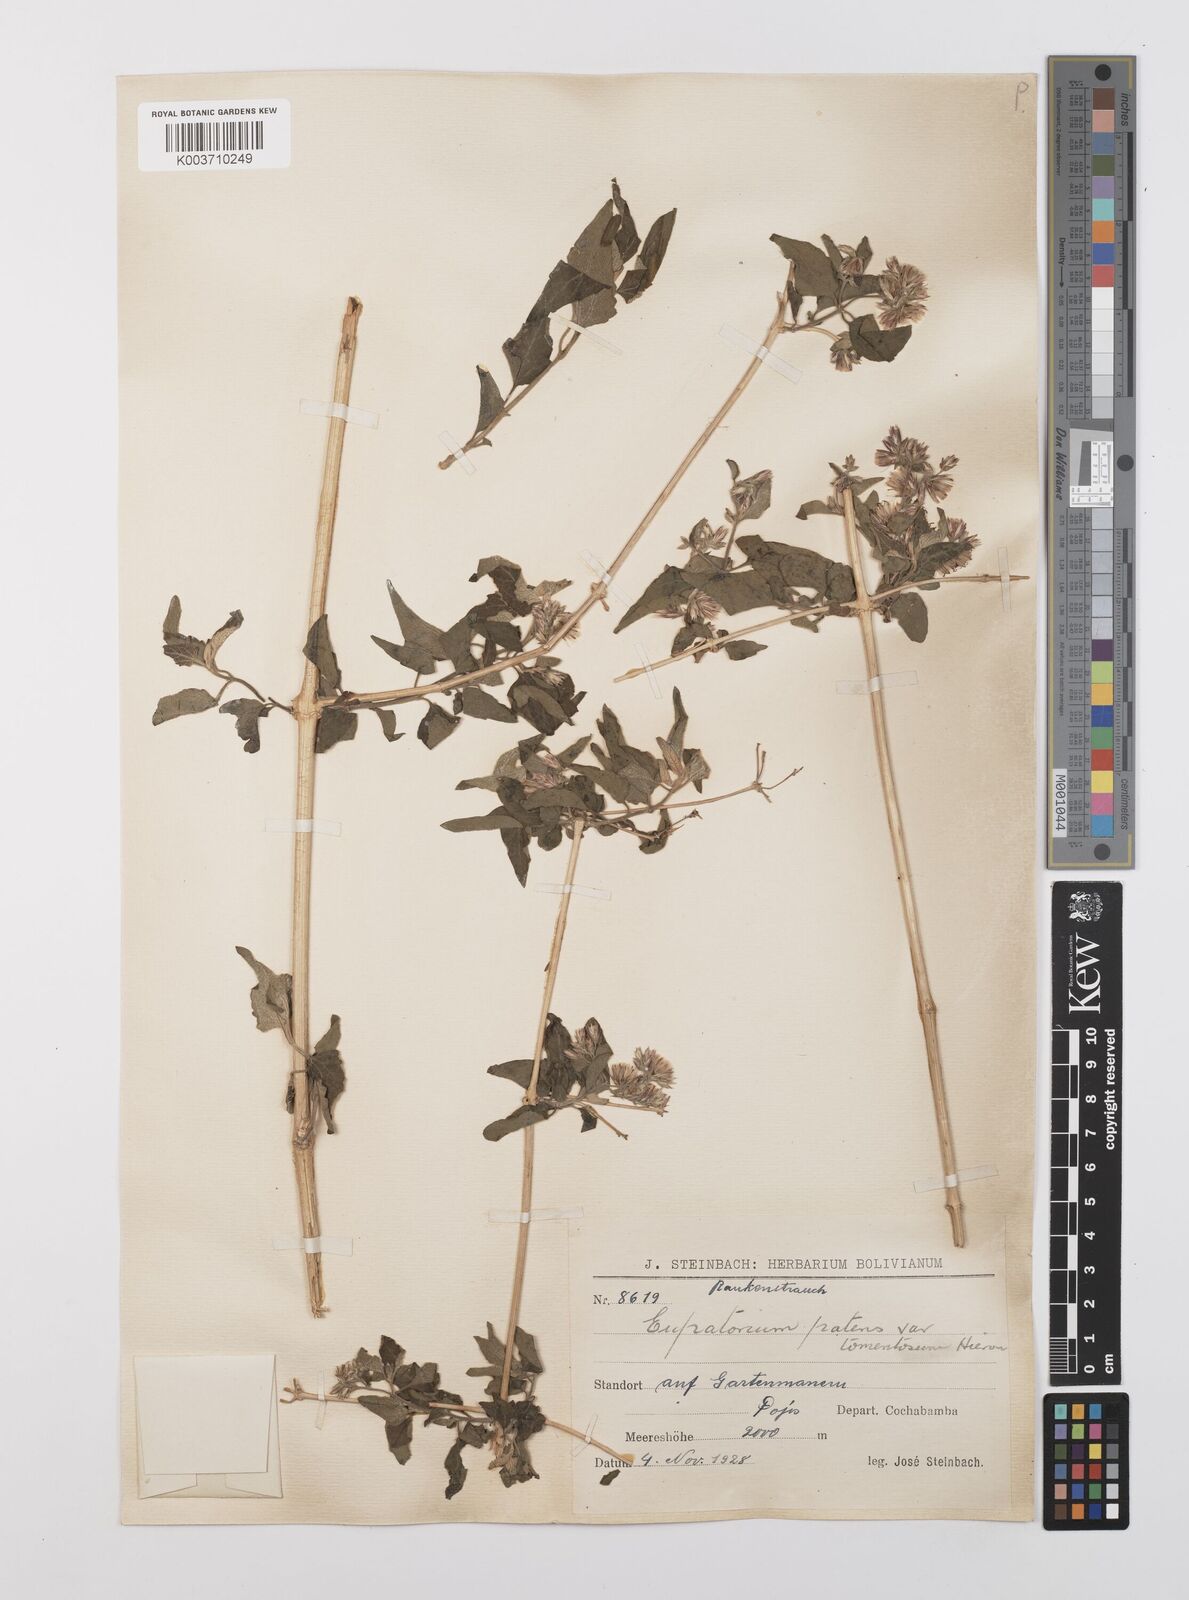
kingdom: Plantae
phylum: Tracheophyta
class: Magnoliopsida
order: Asterales
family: Asteraceae
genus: Austrobrickellia
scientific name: Austrobrickellia patens
